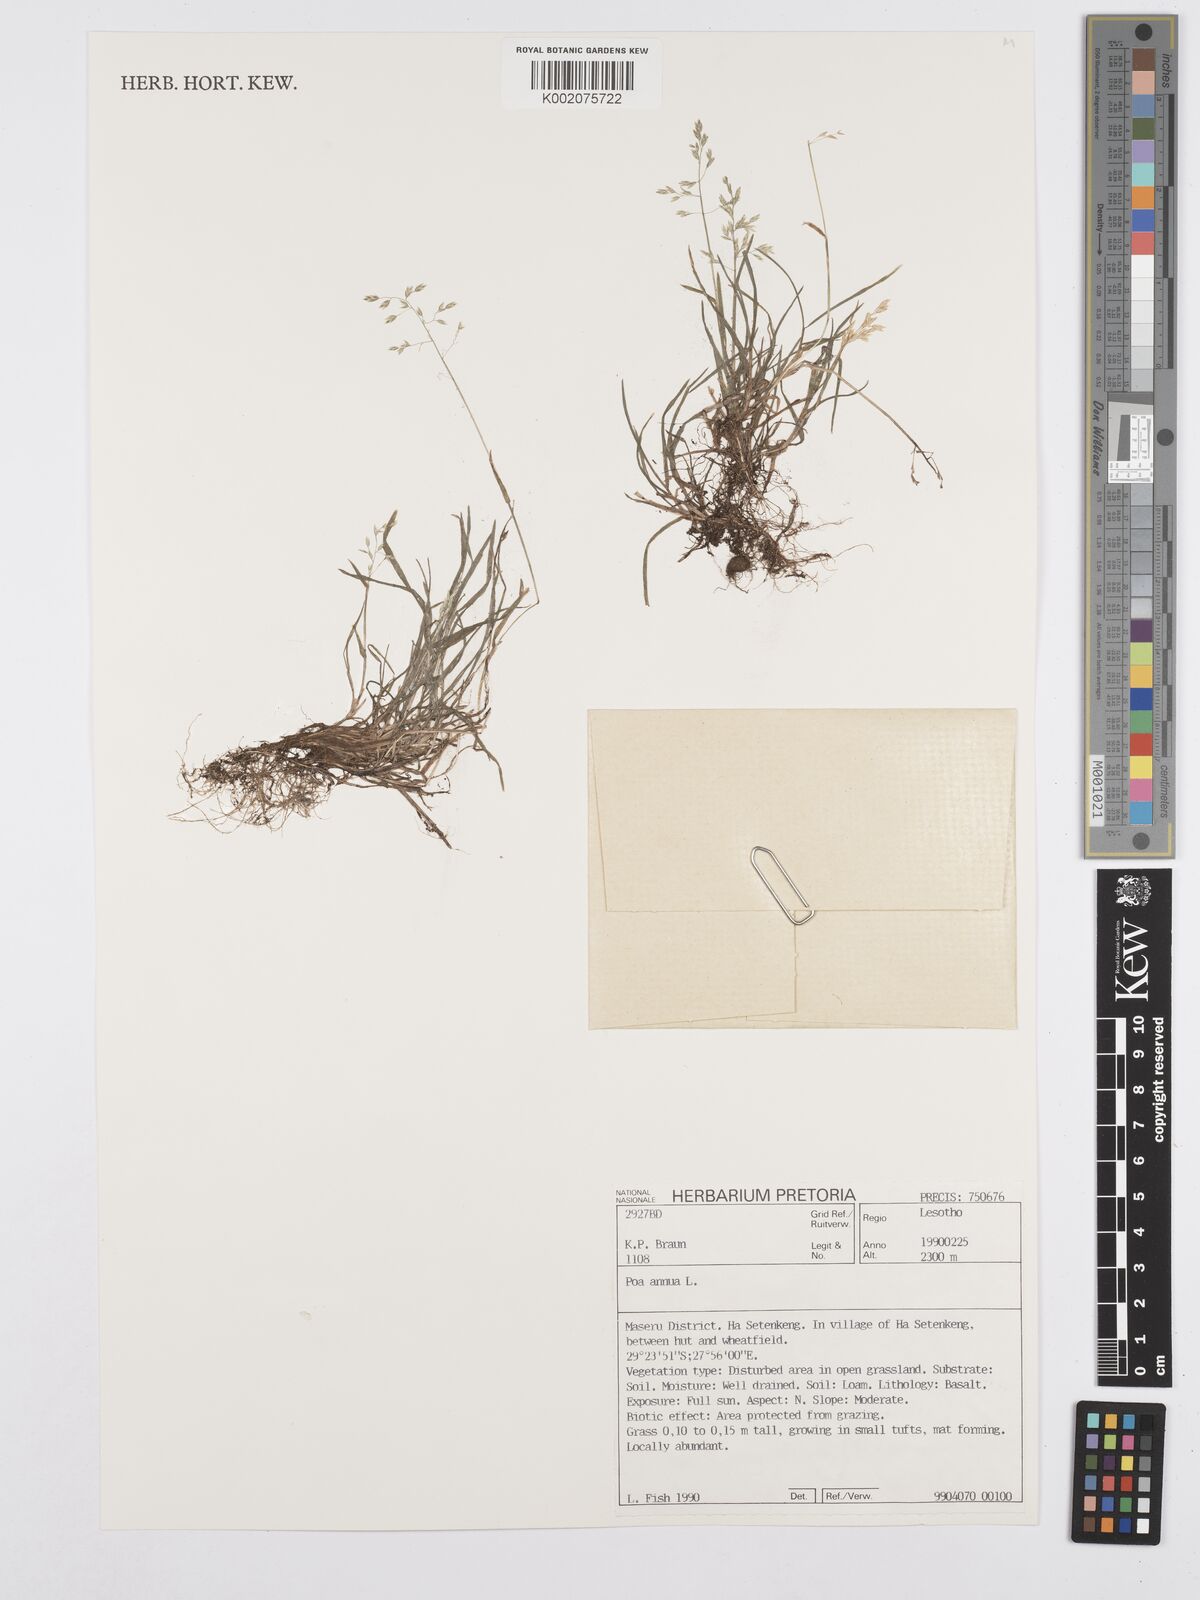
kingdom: Plantae
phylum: Tracheophyta
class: Liliopsida
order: Poales
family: Poaceae
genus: Poa
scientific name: Poa annua
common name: Annual bluegrass
